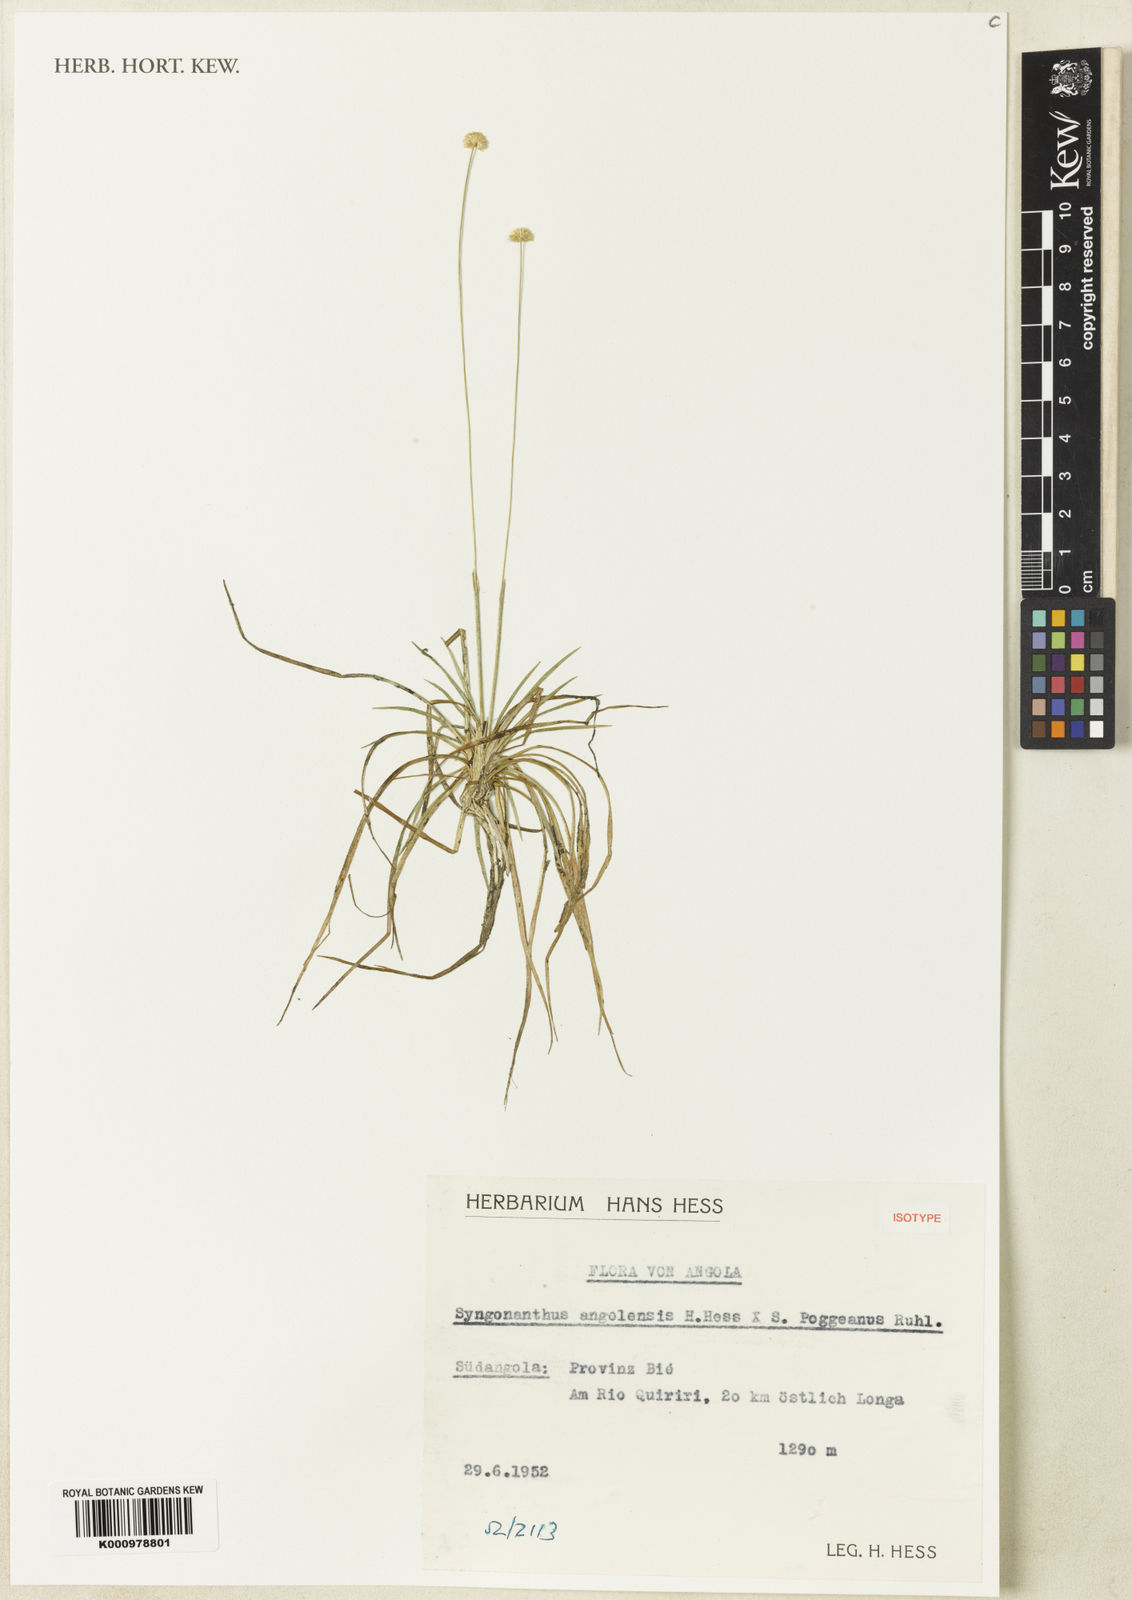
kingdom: Plantae
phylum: Tracheophyta
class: Liliopsida
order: Poales
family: Eriocaulaceae
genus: Syngonanthus
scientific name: Syngonanthus angolensis
